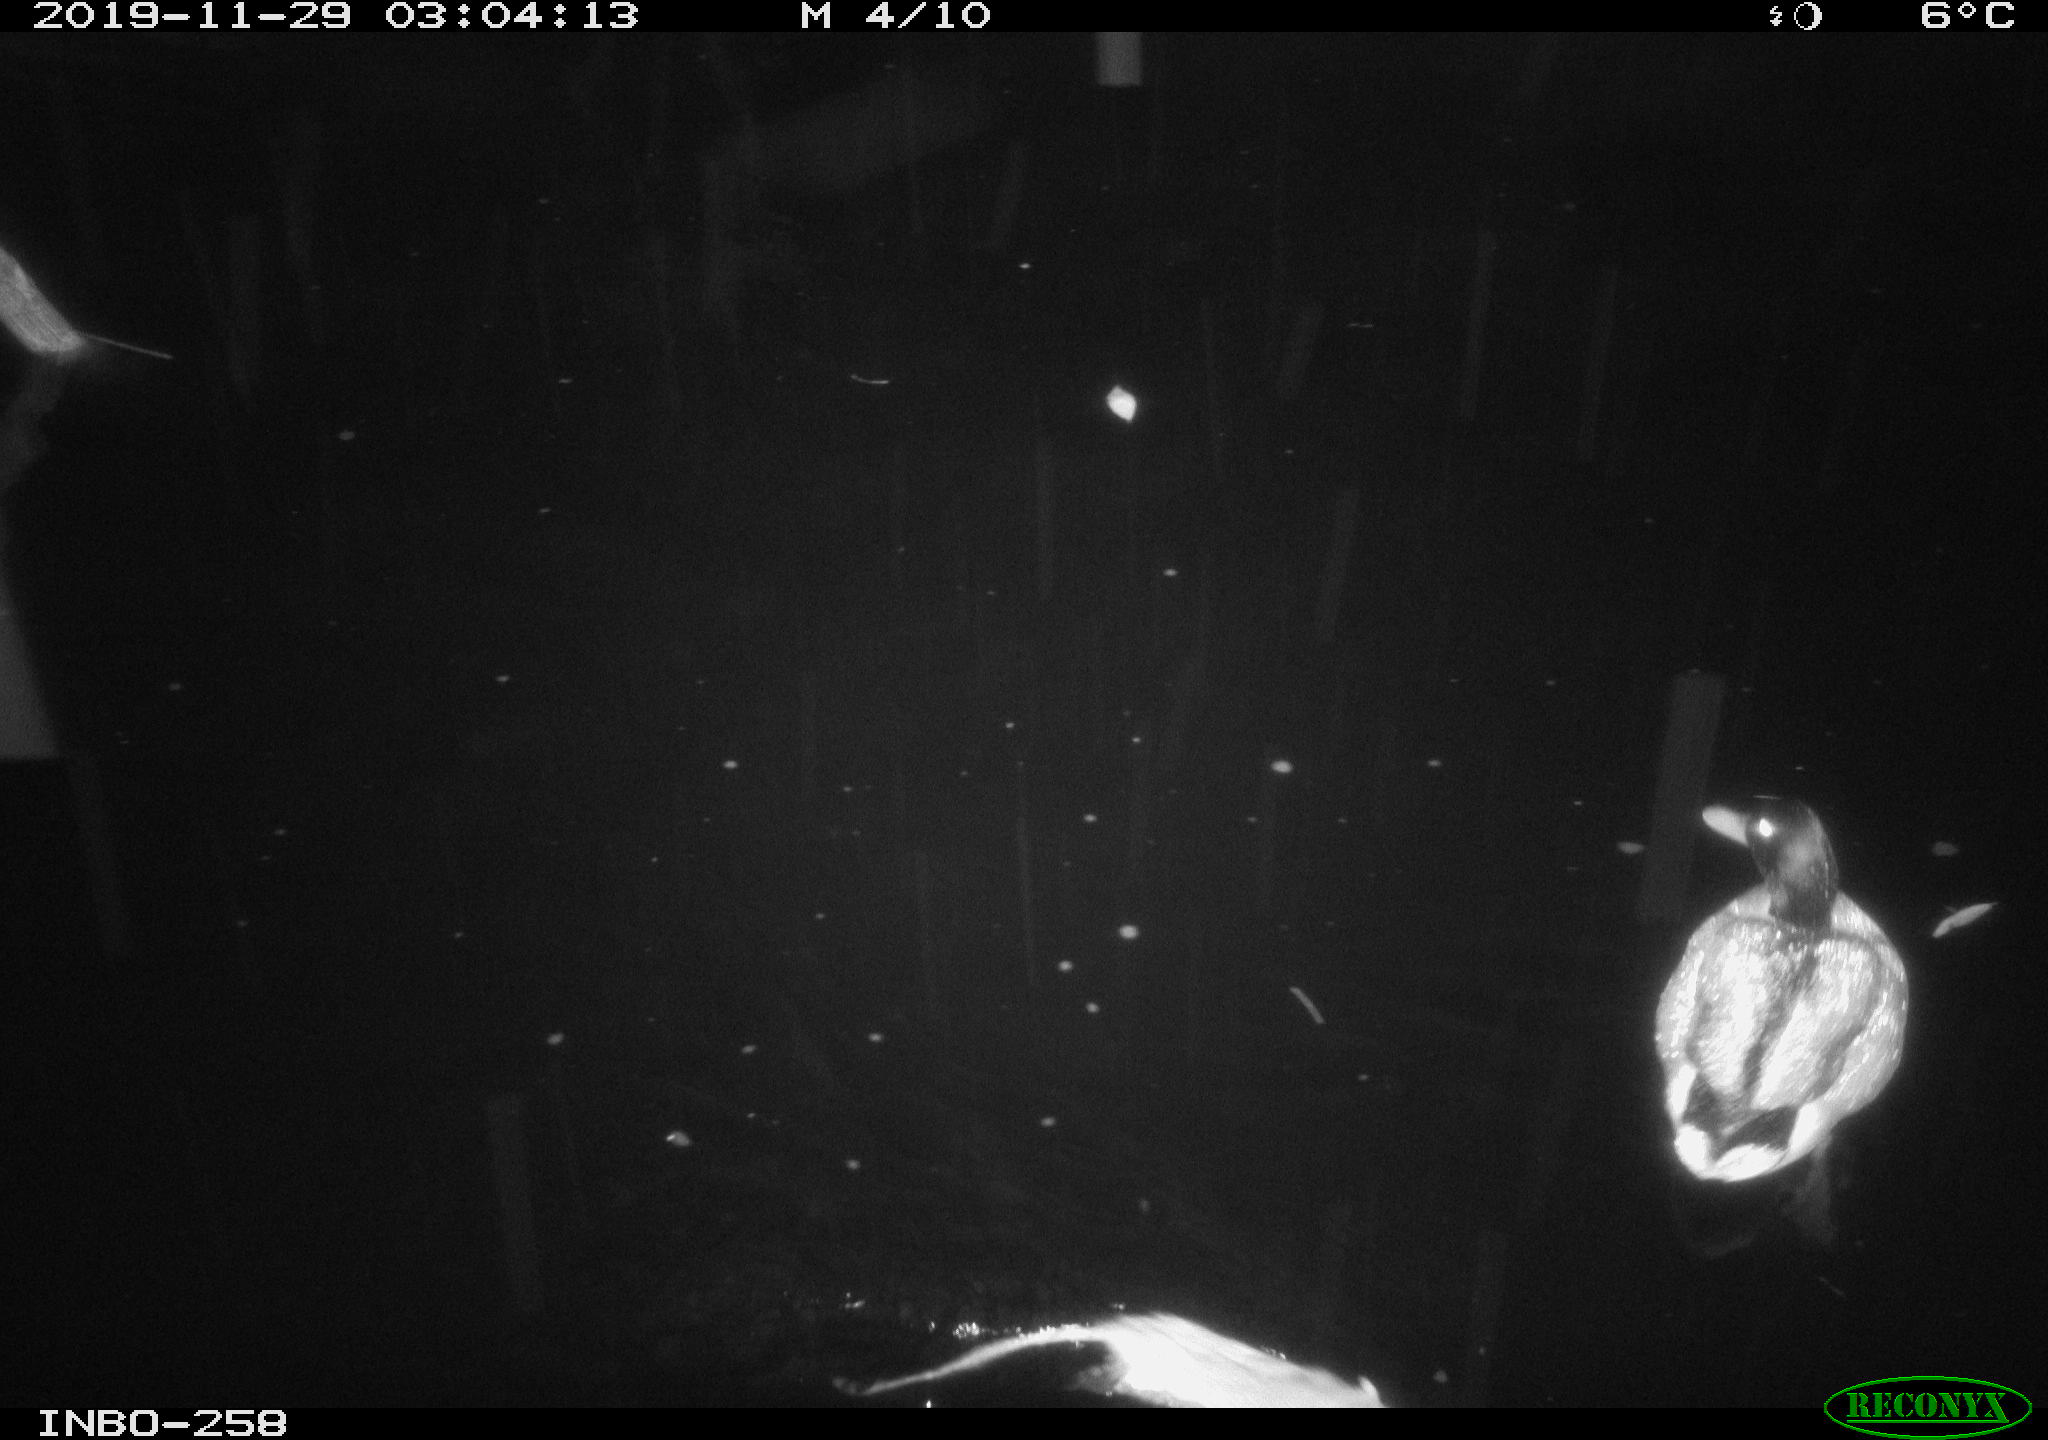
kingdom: Animalia
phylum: Chordata
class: Mammalia
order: Rodentia
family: Muridae
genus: Rattus
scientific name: Rattus norvegicus
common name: Brown rat
